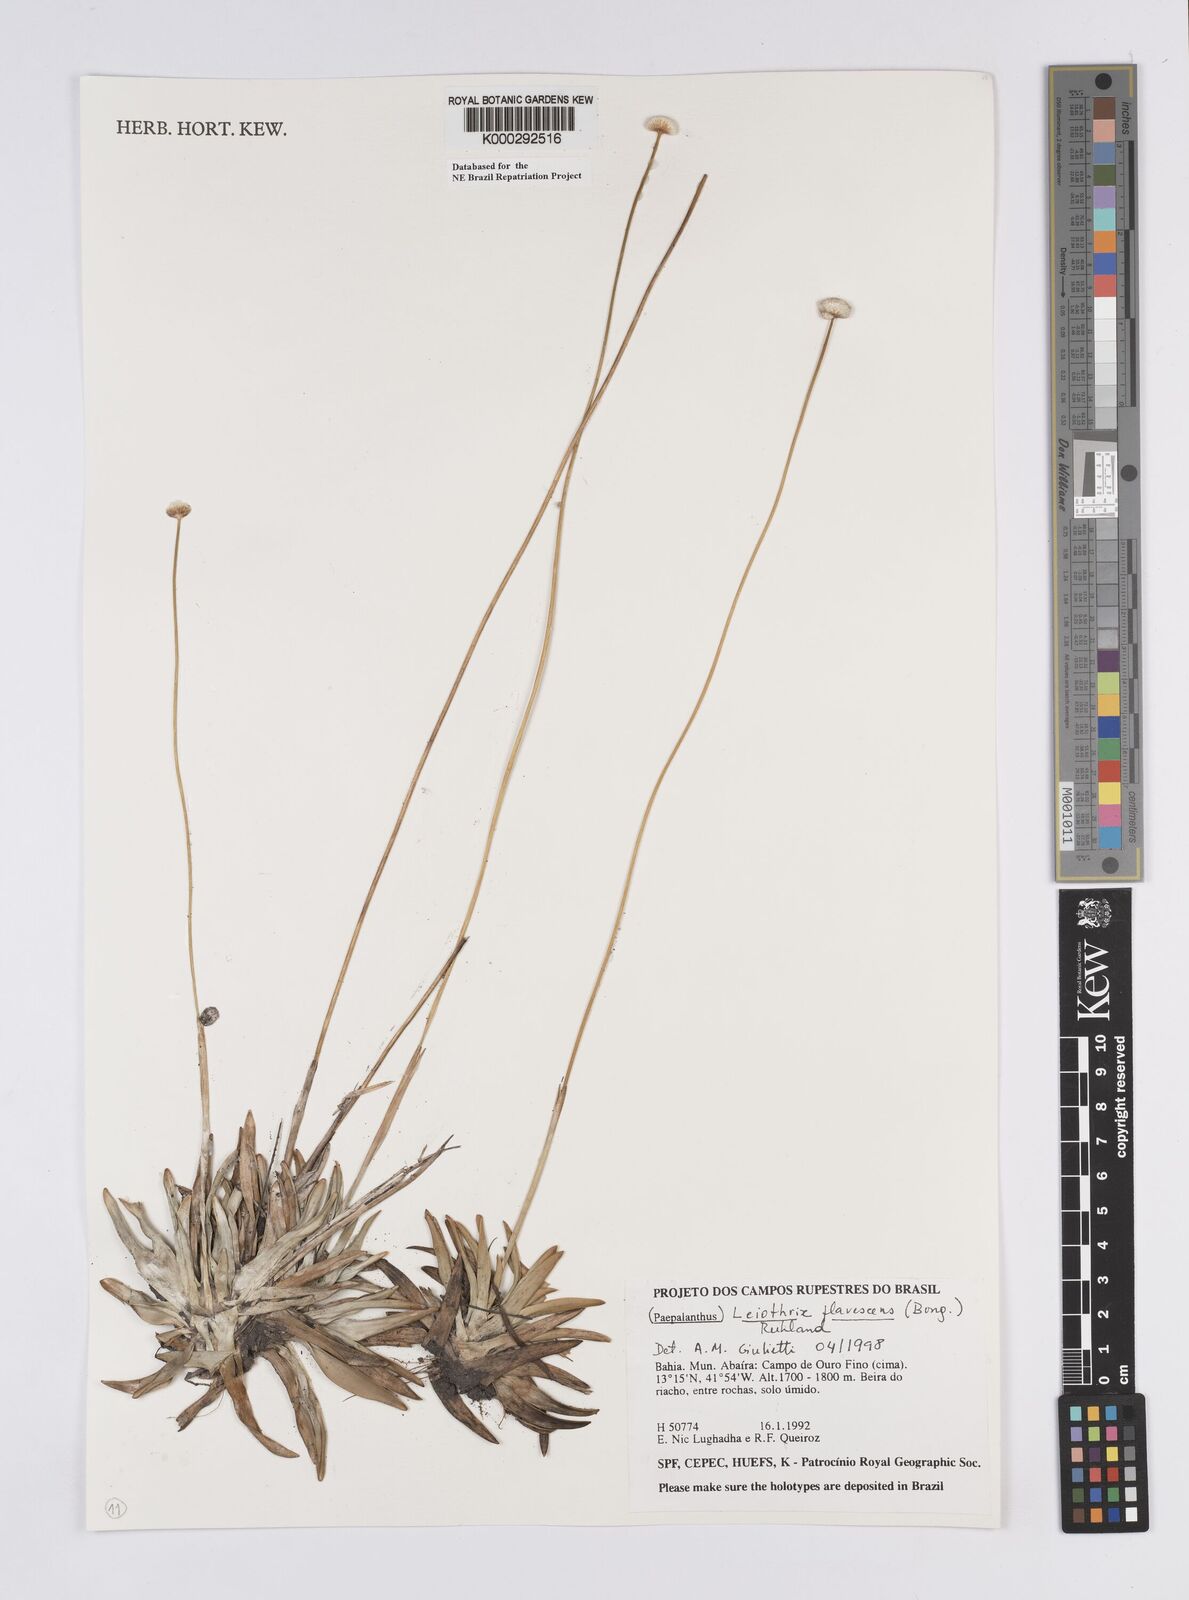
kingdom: Plantae
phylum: Tracheophyta
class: Liliopsida
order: Poales
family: Eriocaulaceae
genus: Leiothrix
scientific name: Leiothrix flavescens
